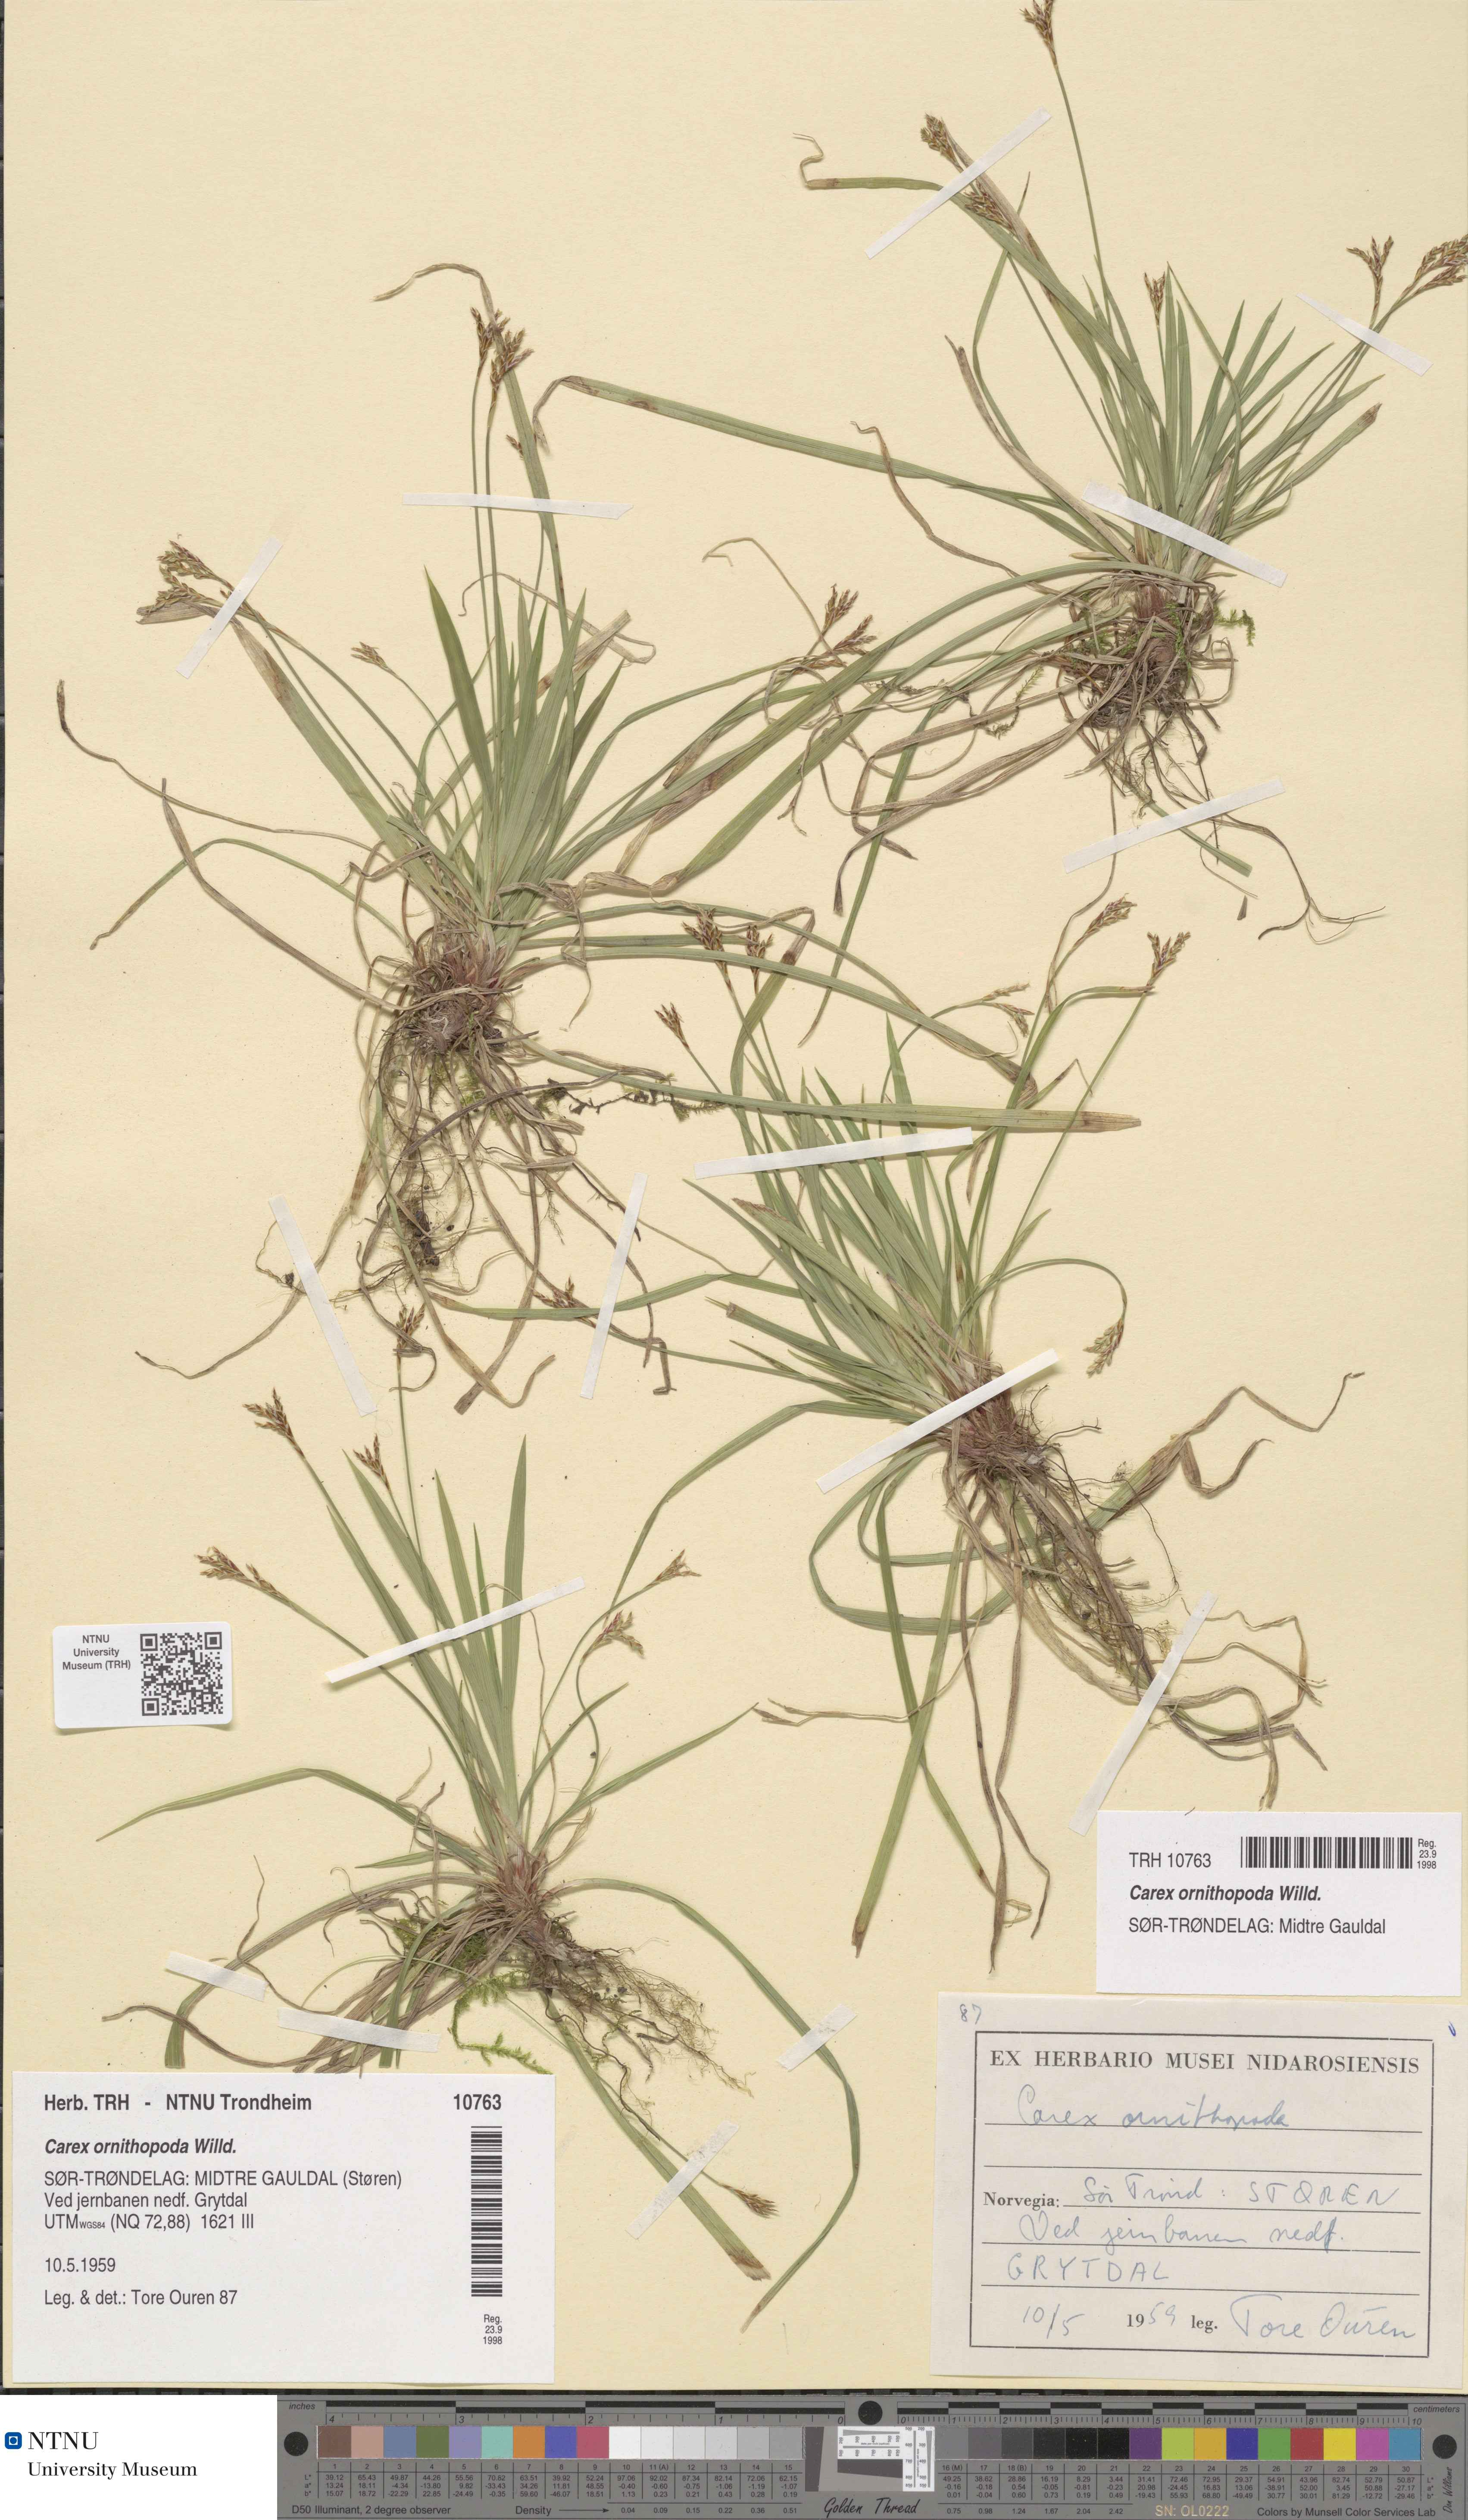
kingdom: Plantae
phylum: Tracheophyta
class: Liliopsida
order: Poales
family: Cyperaceae
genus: Carex
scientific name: Carex ornithopoda
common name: Bird's-foot sedge
